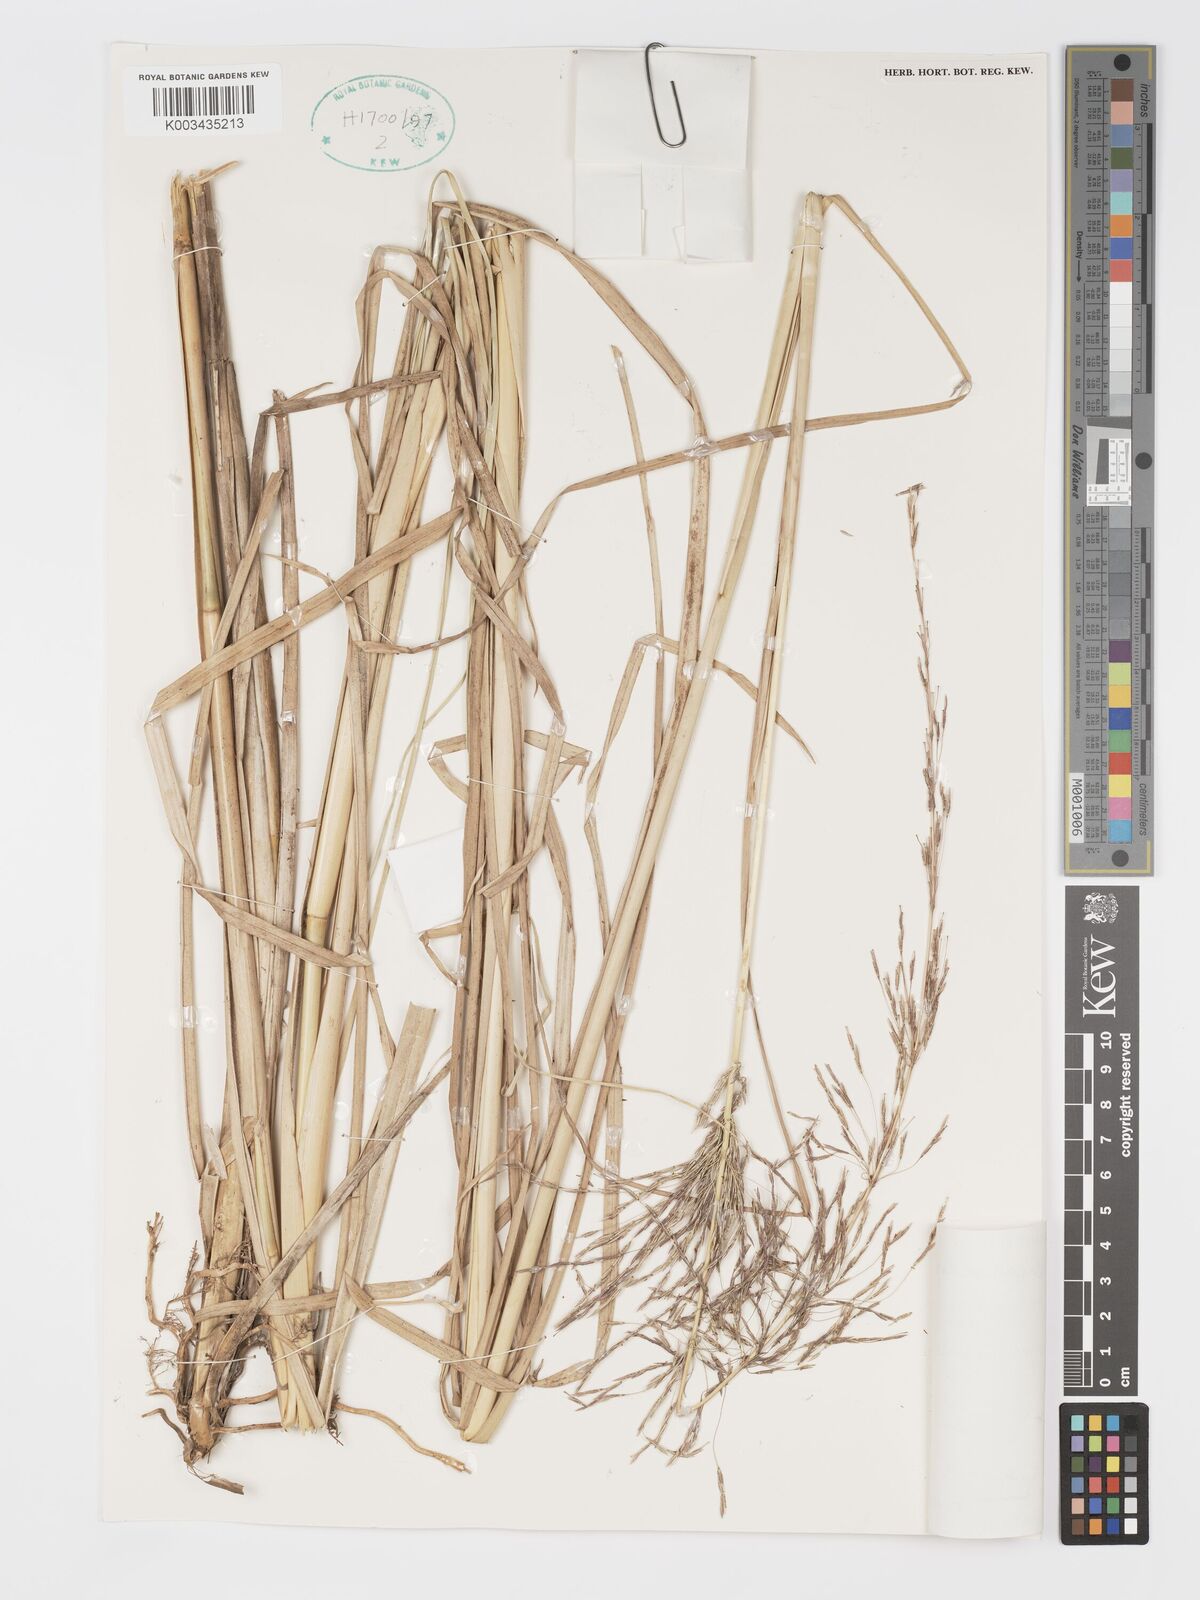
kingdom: Plantae
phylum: Tracheophyta
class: Liliopsida
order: Poales
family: Poaceae
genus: Chrysopogon
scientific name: Chrysopogon zizanioides
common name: False beardgrass
